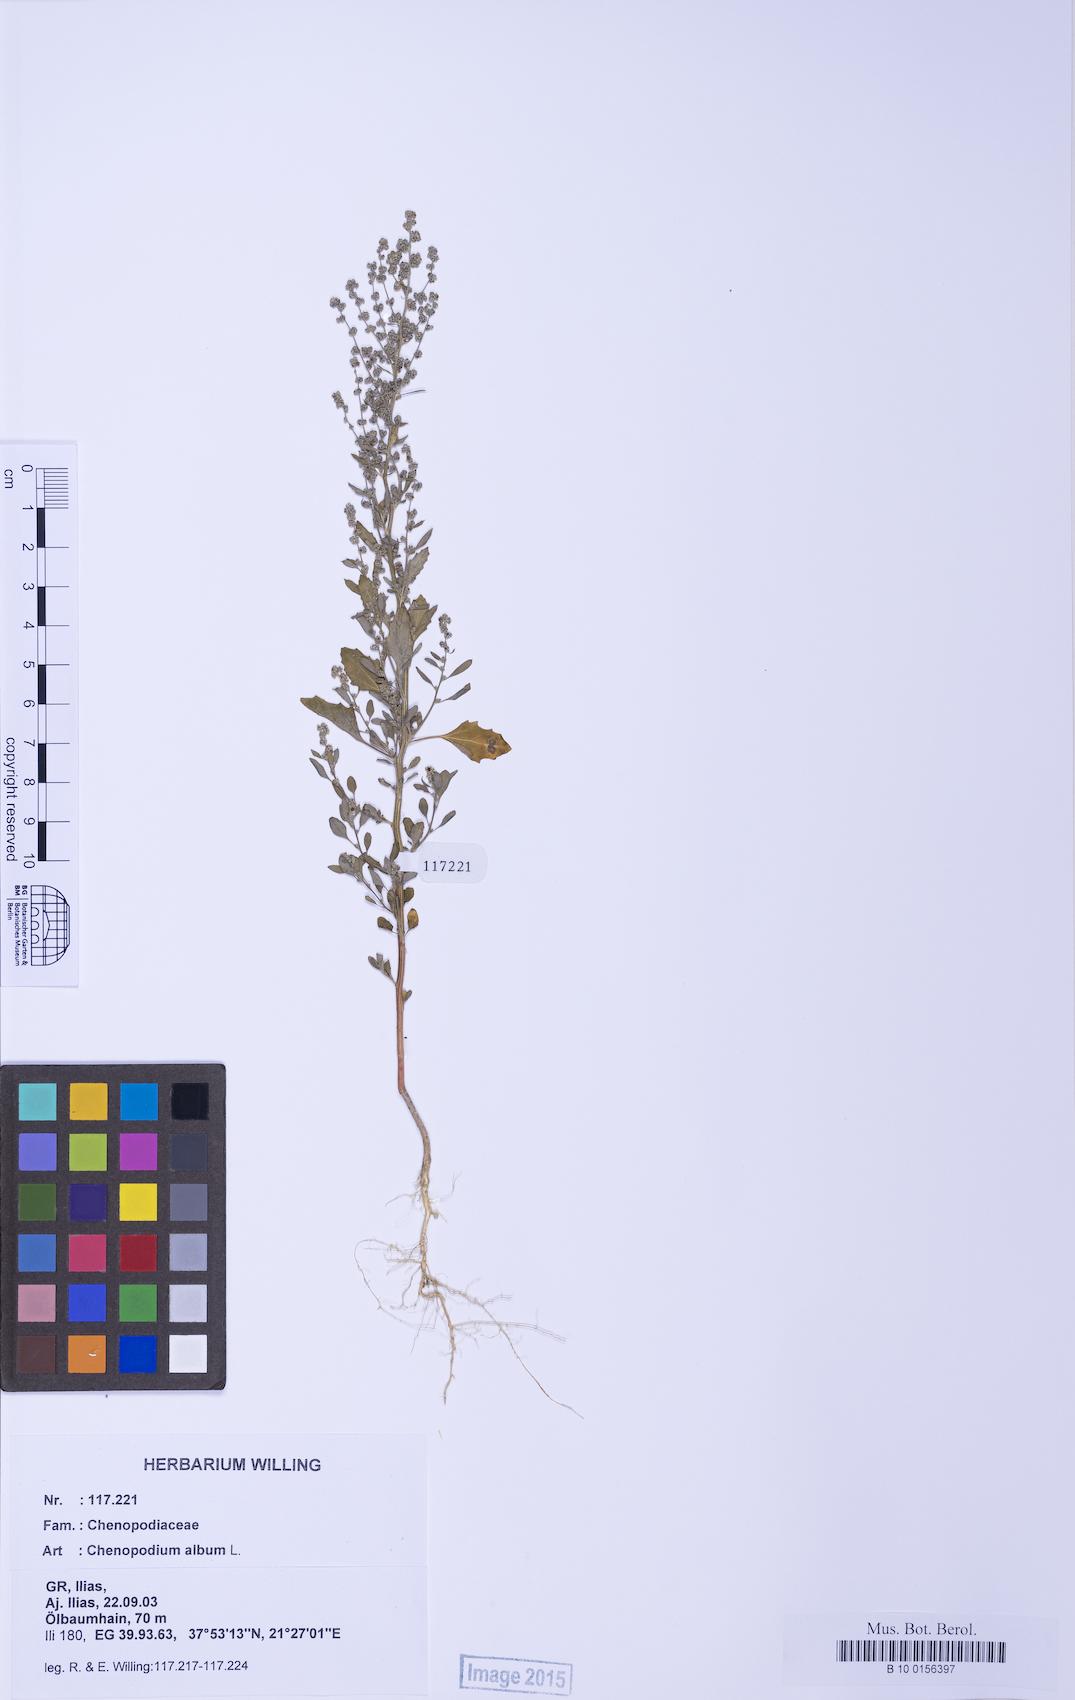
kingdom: Plantae
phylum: Tracheophyta
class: Magnoliopsida
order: Caryophyllales
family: Amaranthaceae
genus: Chenopodium
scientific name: Chenopodium album
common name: Fat-hen
